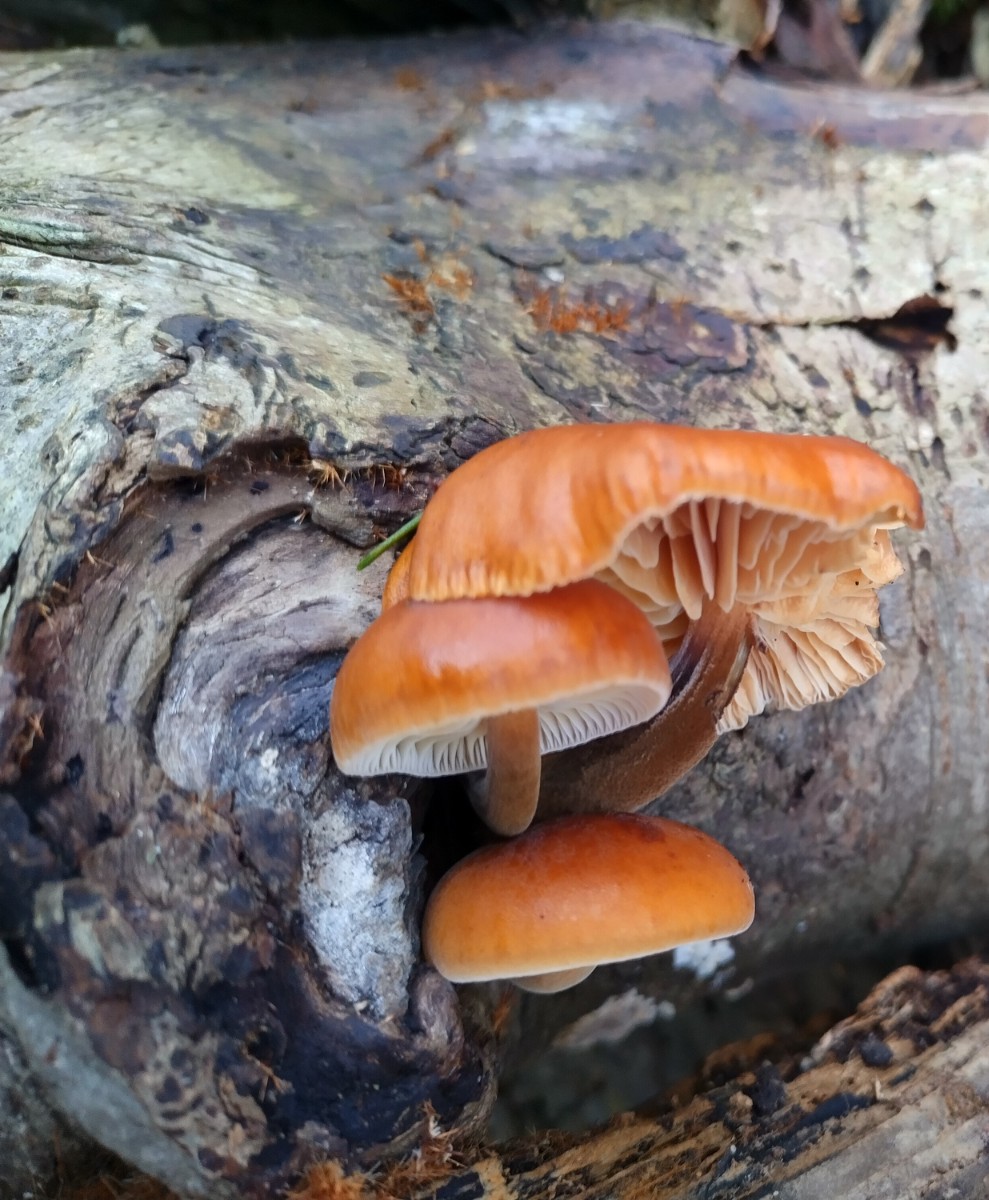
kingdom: Fungi
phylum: Basidiomycota
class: Agaricomycetes
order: Agaricales
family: Physalacriaceae
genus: Flammulina
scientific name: Flammulina velutipes
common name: gul fløjlsfod
